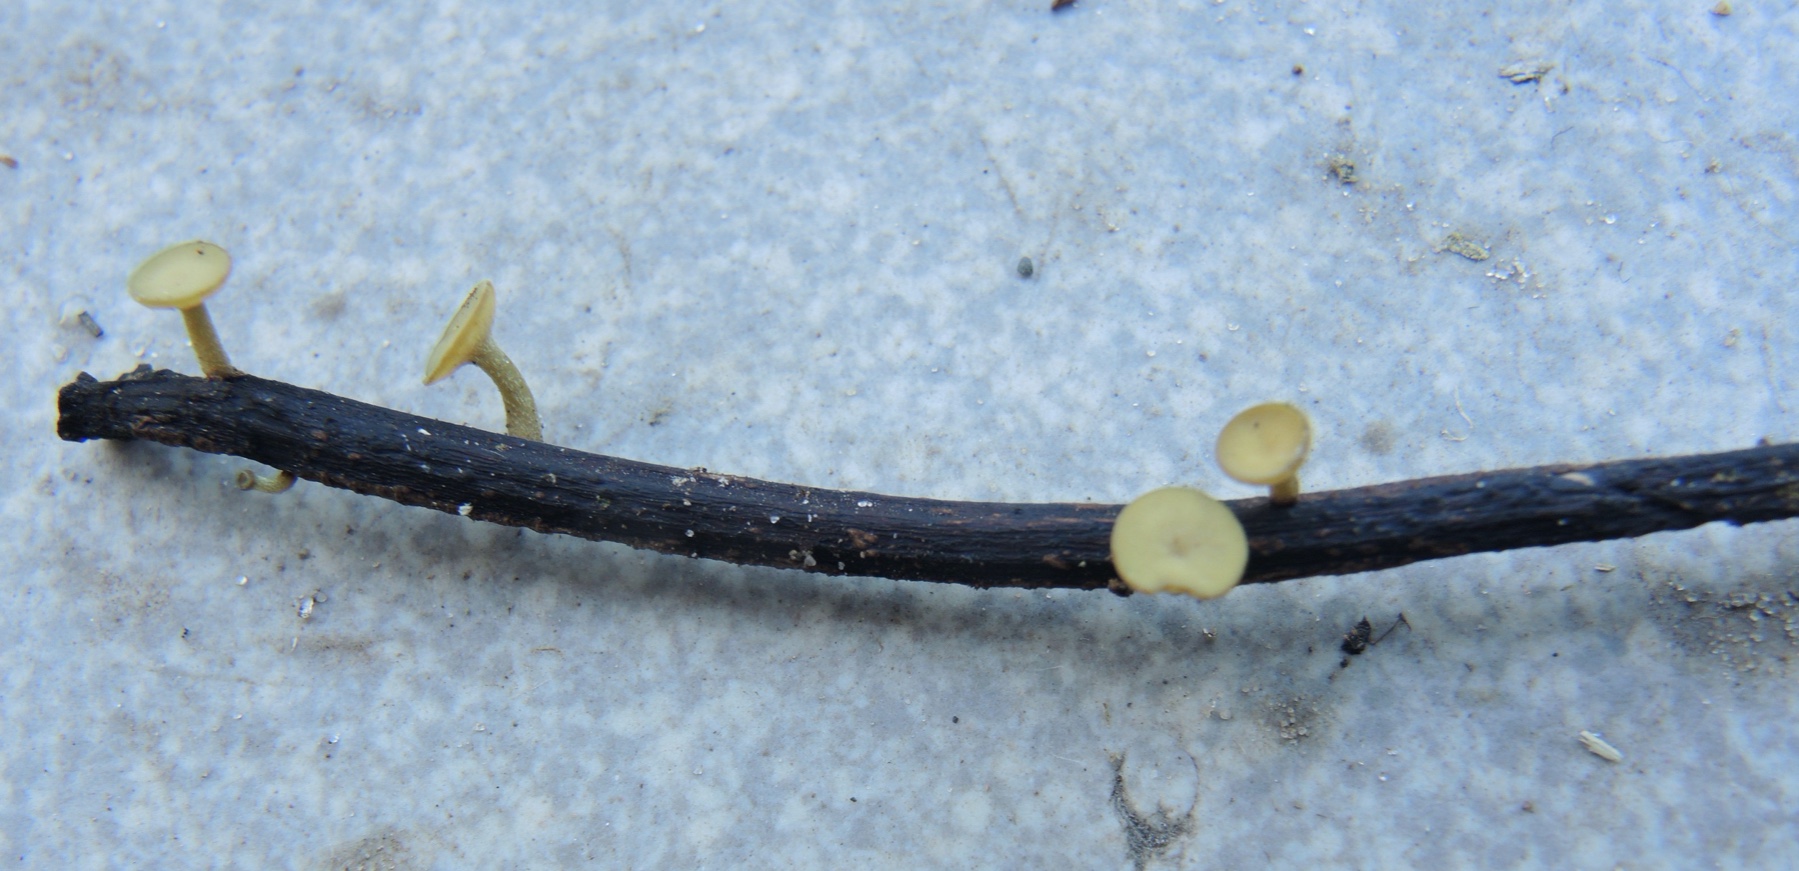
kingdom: Fungi
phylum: Ascomycota
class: Leotiomycetes
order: Helotiales
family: Rutstroemiaceae
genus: Lanzia
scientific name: Lanzia luteovirescens
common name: olivengul brunskive
